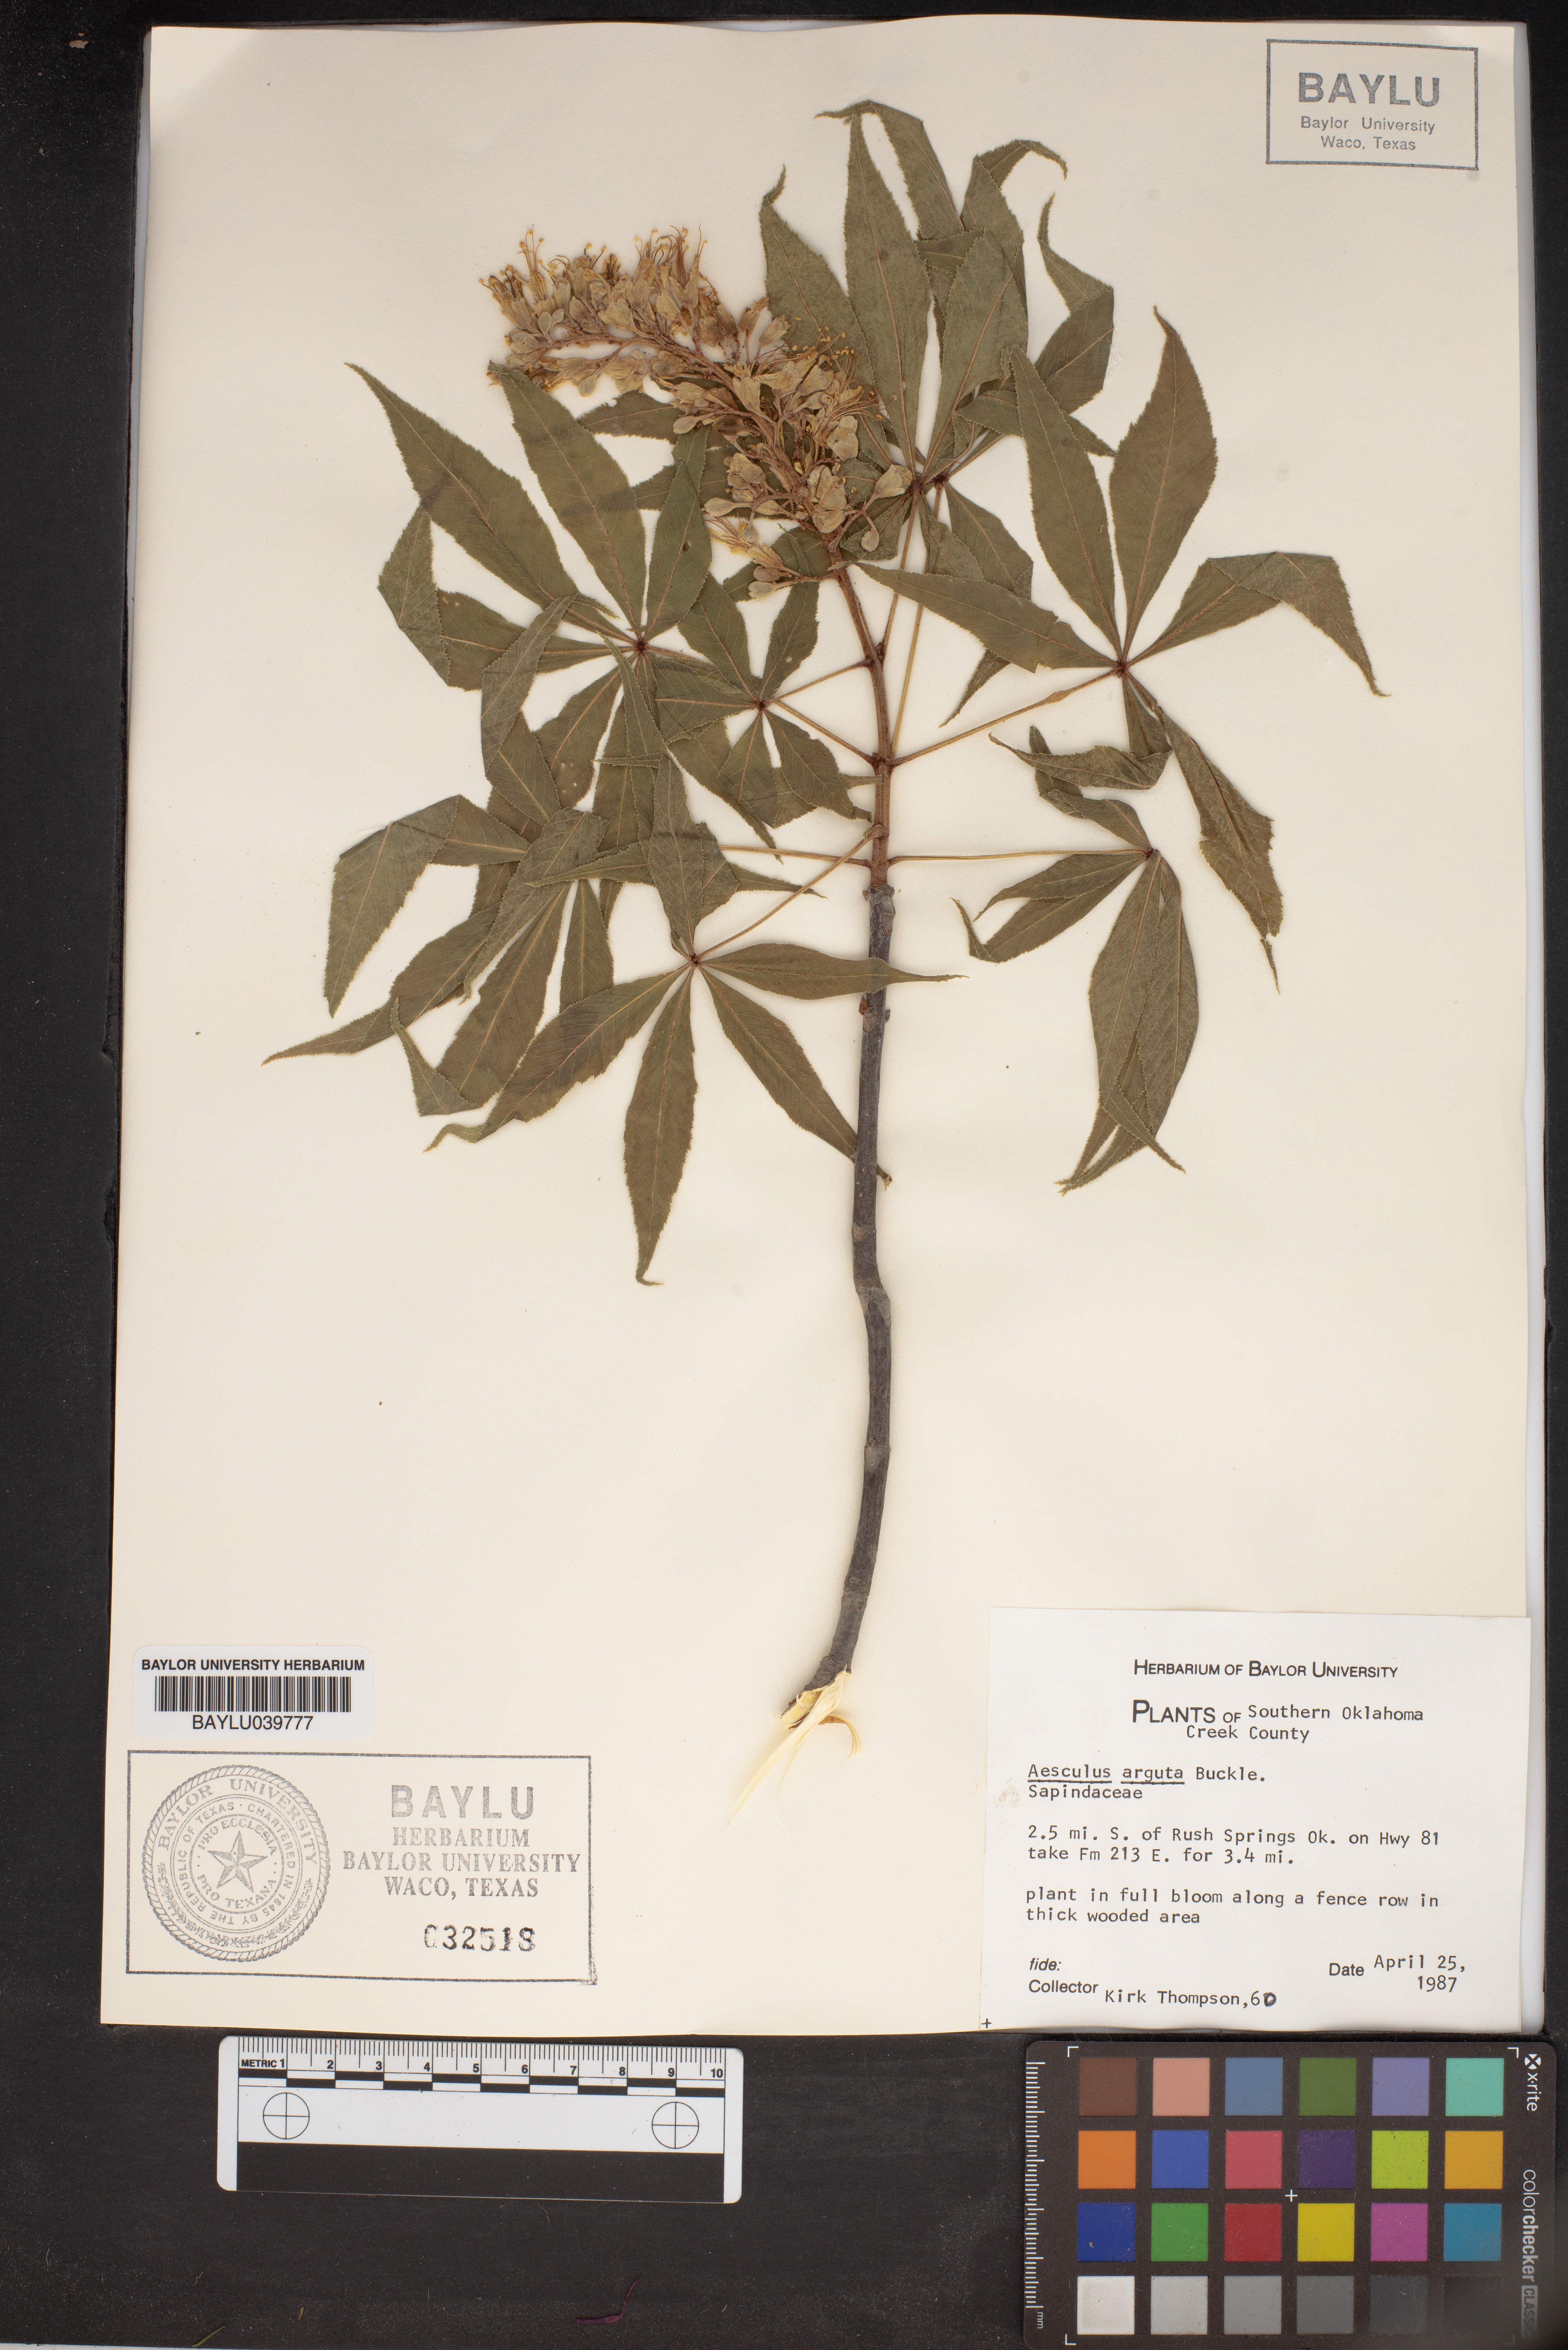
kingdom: Plantae
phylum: Tracheophyta
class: Magnoliopsida
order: Sapindales
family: Sapindaceae
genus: Aesculus
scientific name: Aesculus glabra
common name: Ohio buckeye
